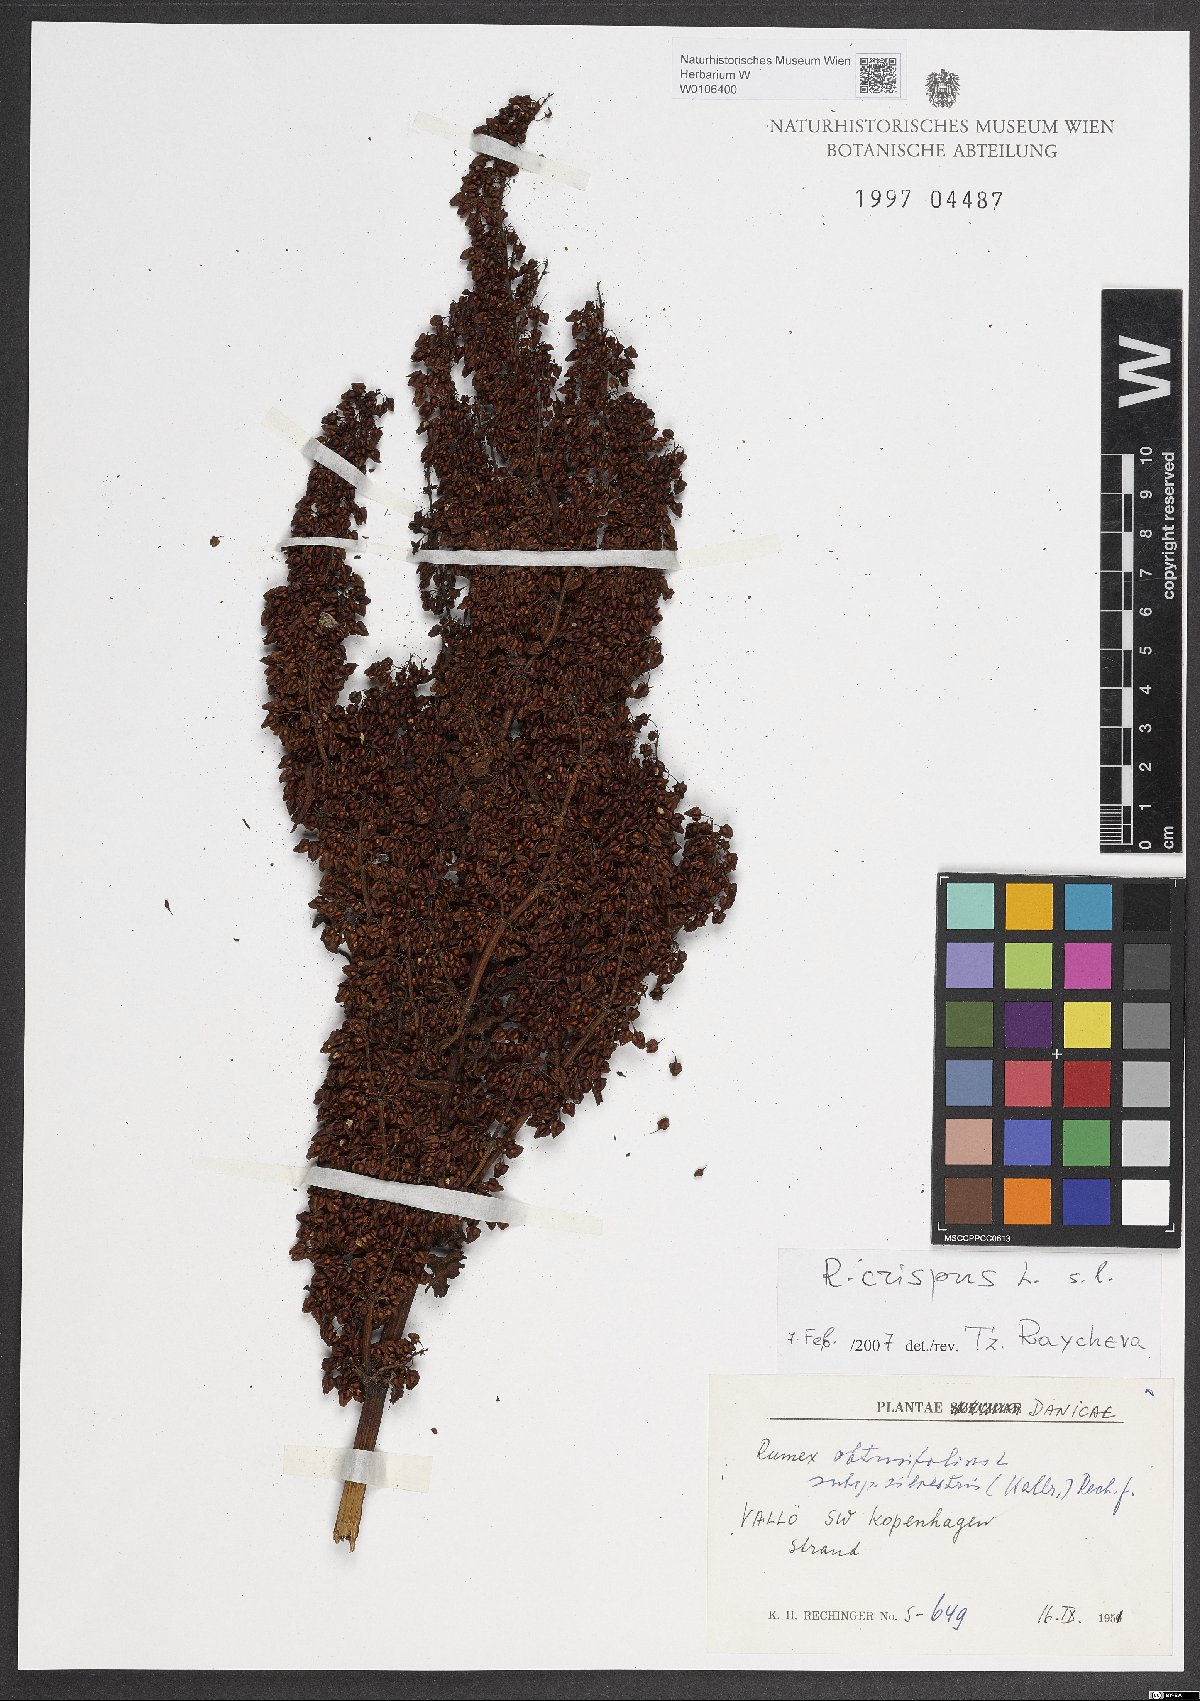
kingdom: Plantae
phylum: Tracheophyta
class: Magnoliopsida
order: Caryophyllales
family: Polygonaceae
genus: Rumex
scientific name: Rumex crispus
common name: Curled dock
